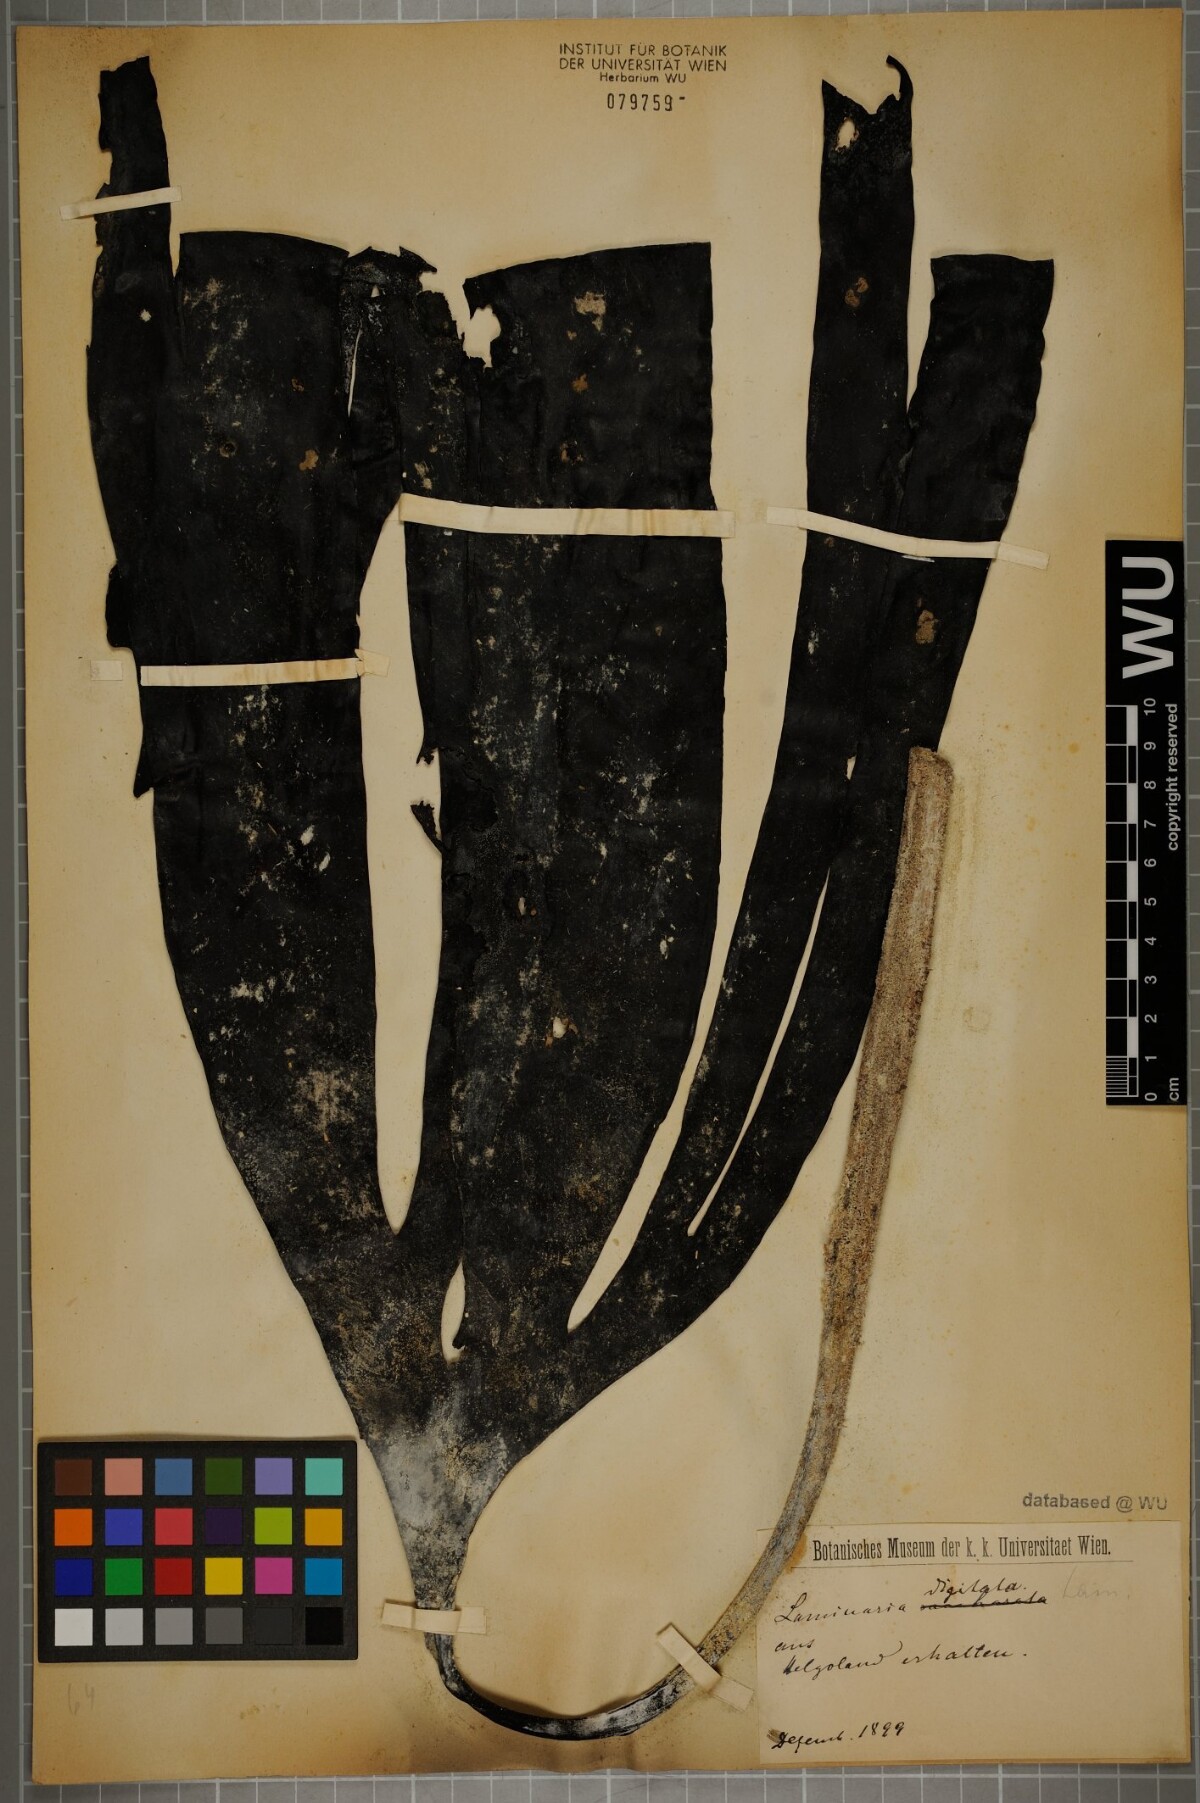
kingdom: Chromista
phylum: Ochrophyta
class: Phaeophyceae
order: Laminariales
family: Laminariaceae
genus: Laminaria
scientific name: Laminaria digitata
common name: Oarweed
